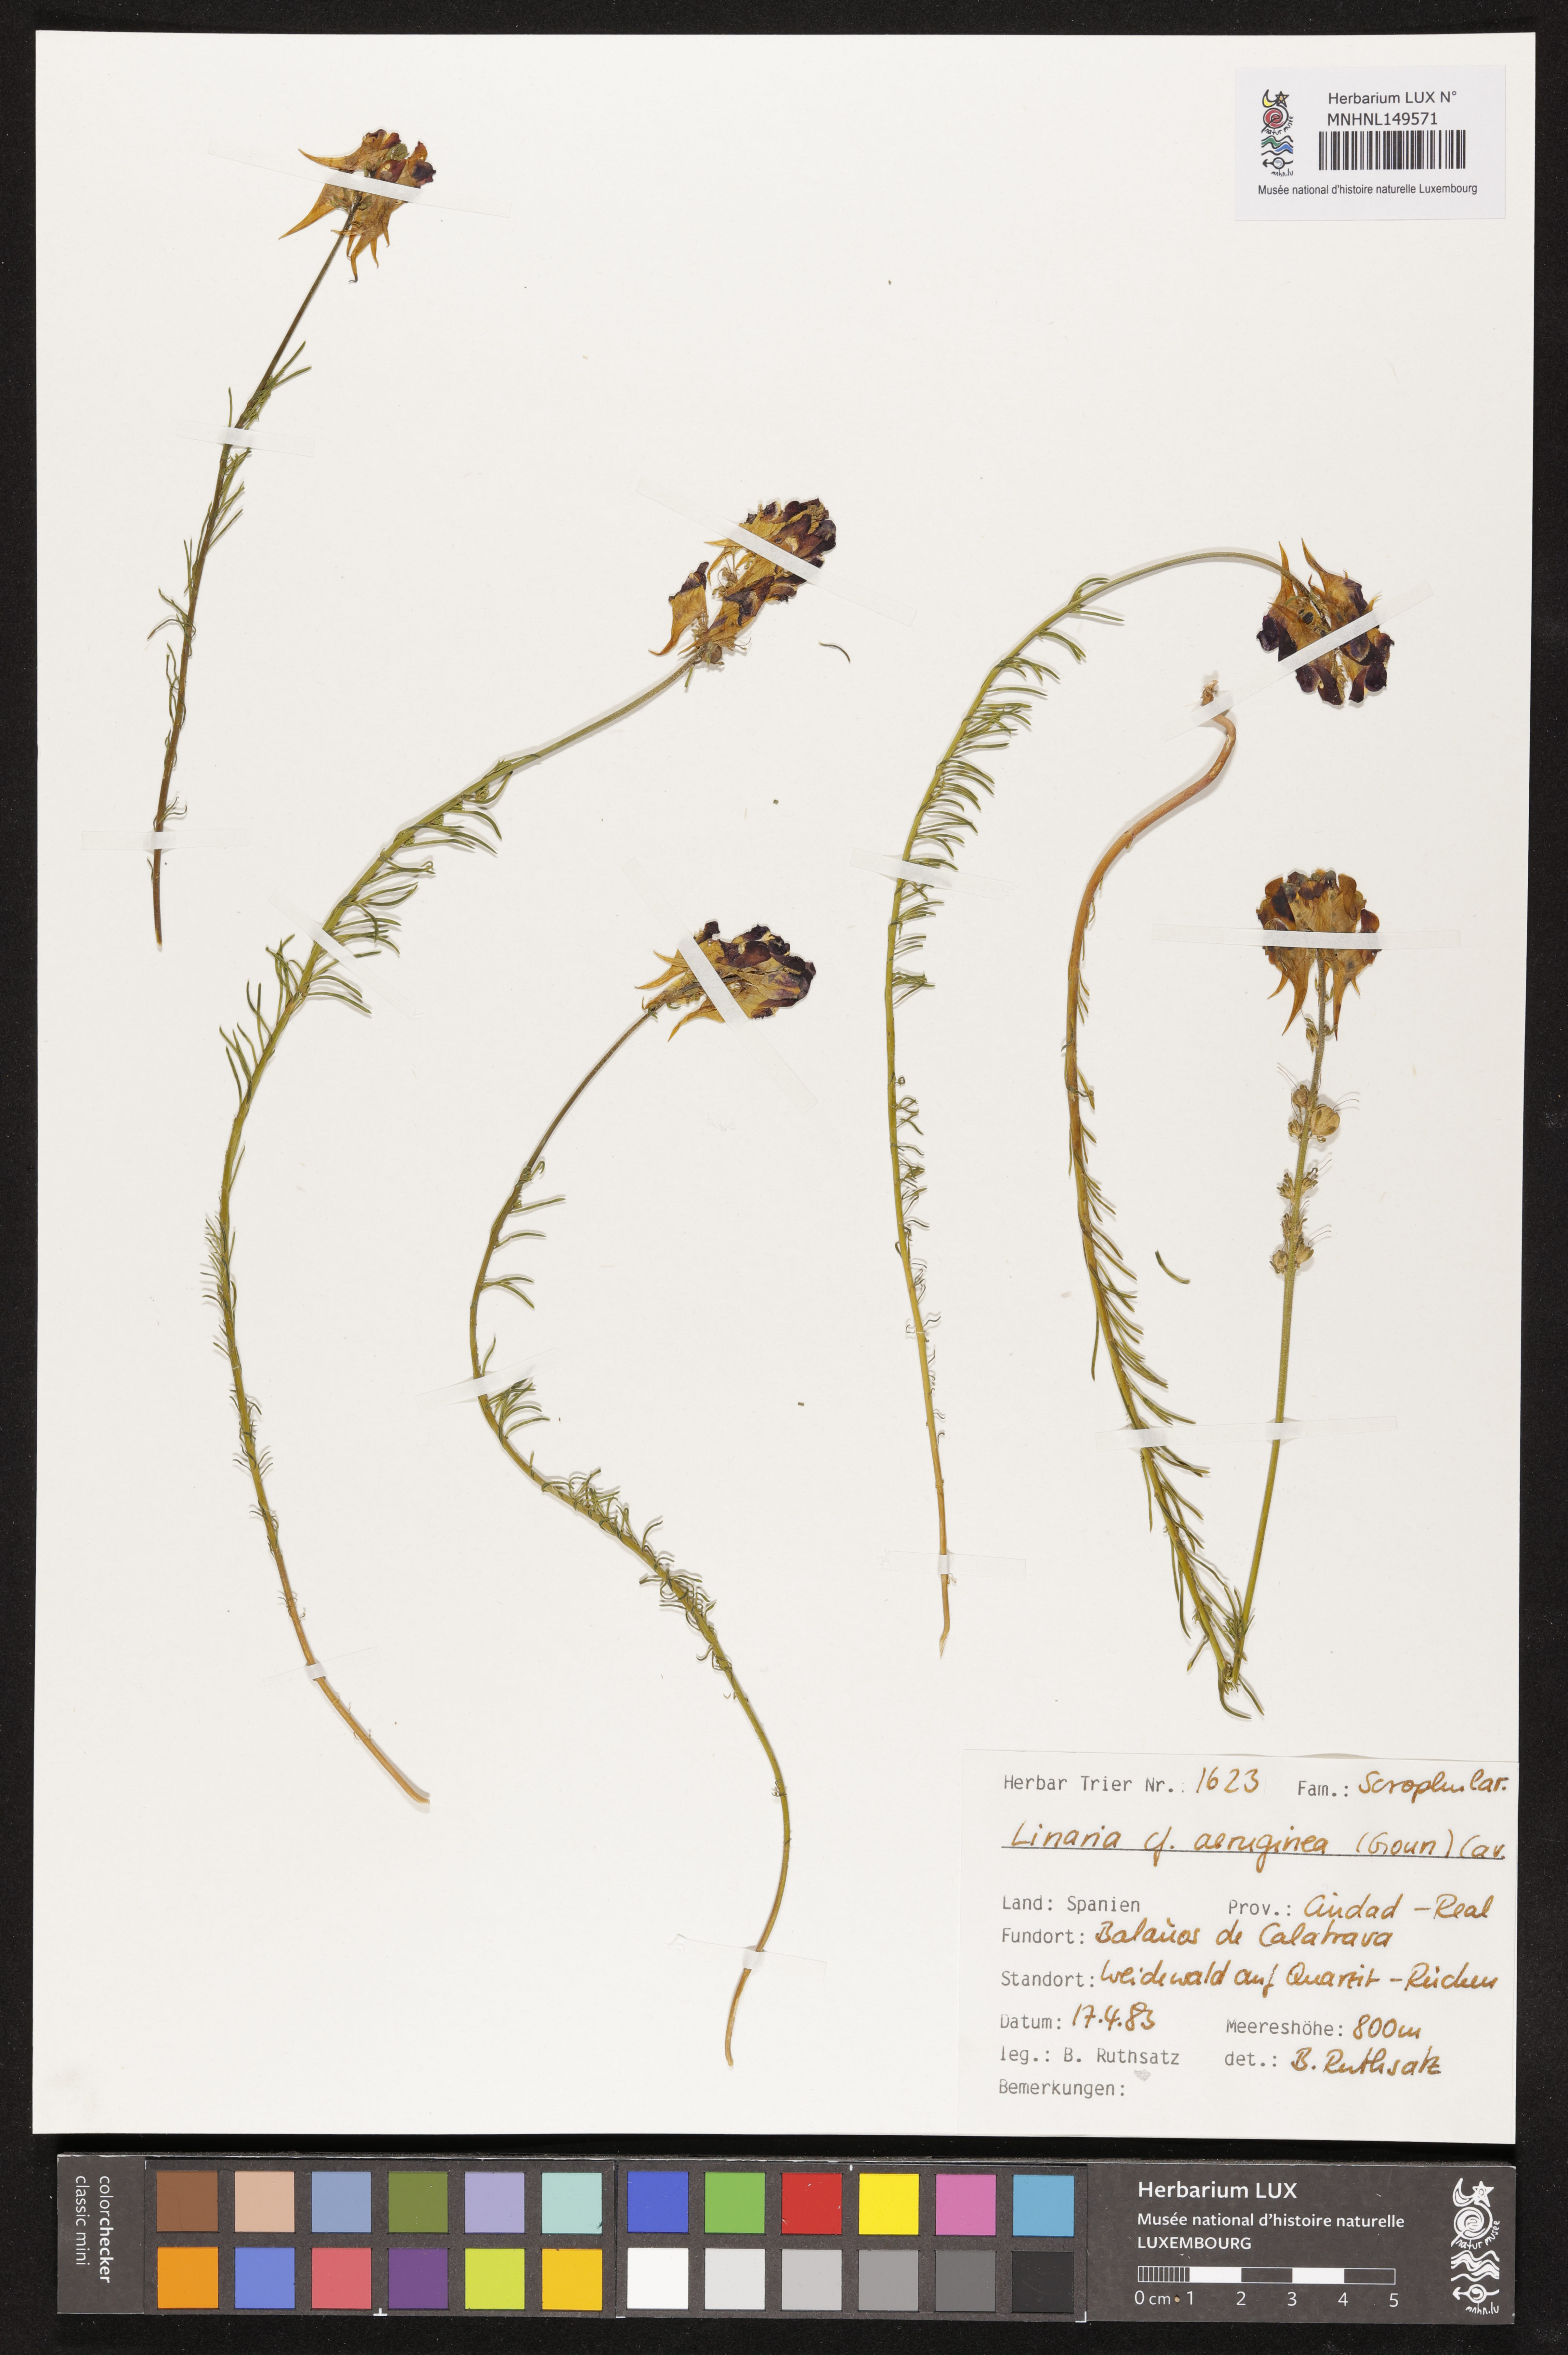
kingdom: Plantae
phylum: Tracheophyta
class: Magnoliopsida
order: Lamiales
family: Plantaginaceae
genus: Linaria
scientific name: Linaria aeruginea
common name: Roadside toadflax
